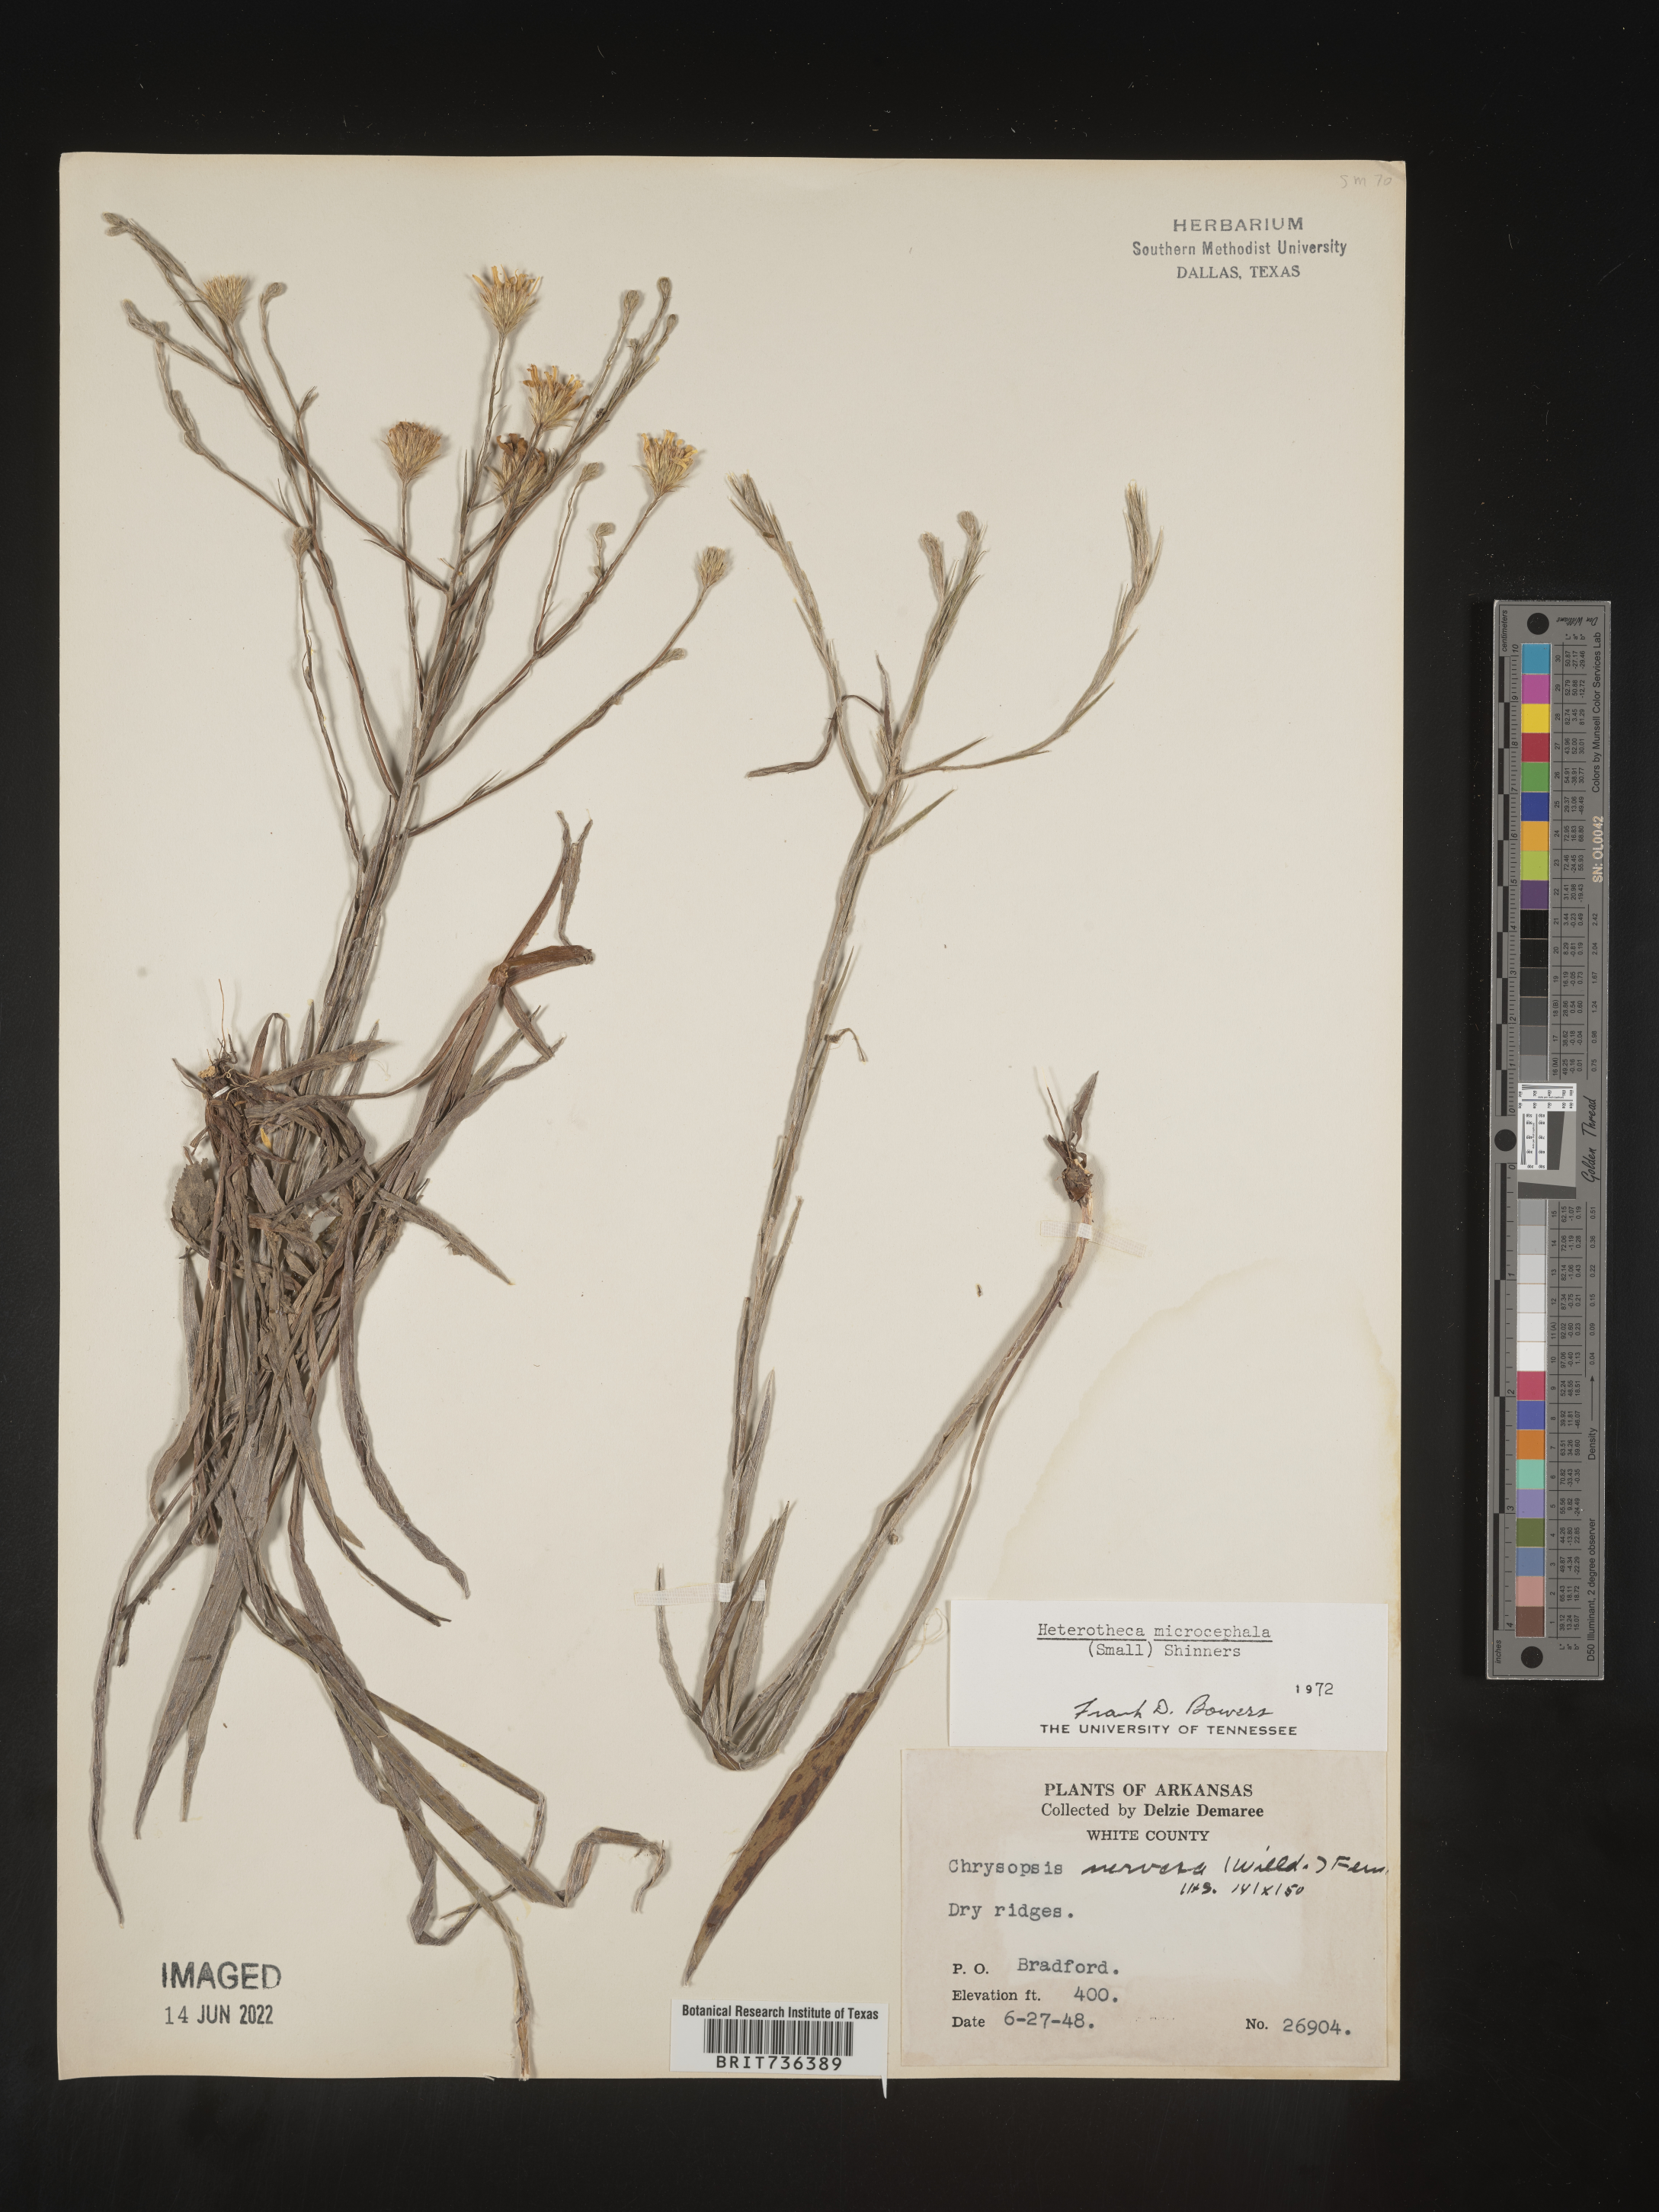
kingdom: Plantae
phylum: Tracheophyta
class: Magnoliopsida
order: Asterales
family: Asteraceae
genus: Pityopsis
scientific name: Pityopsis tenuifolia
